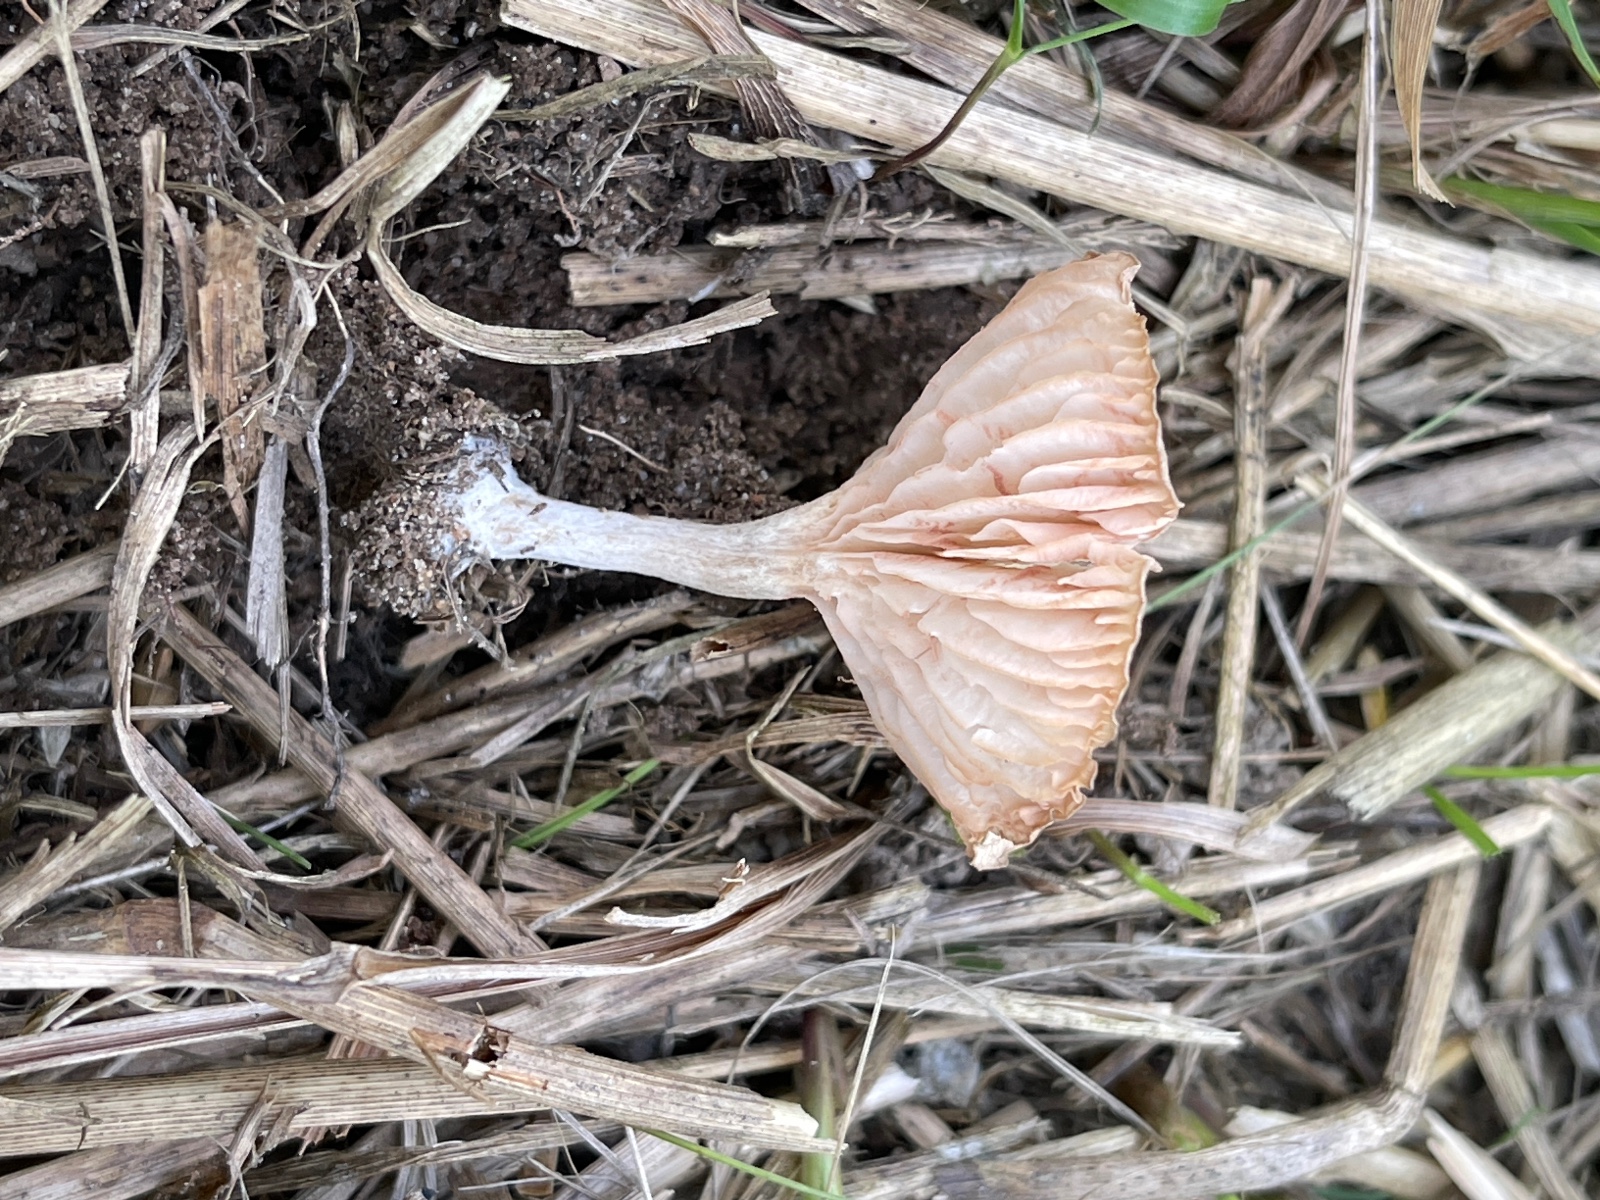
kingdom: Fungi
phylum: Basidiomycota
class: Agaricomycetes
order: Agaricales
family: Entolomataceae
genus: Entoloma
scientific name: Entoloma neglectum
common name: bleg rødblad
